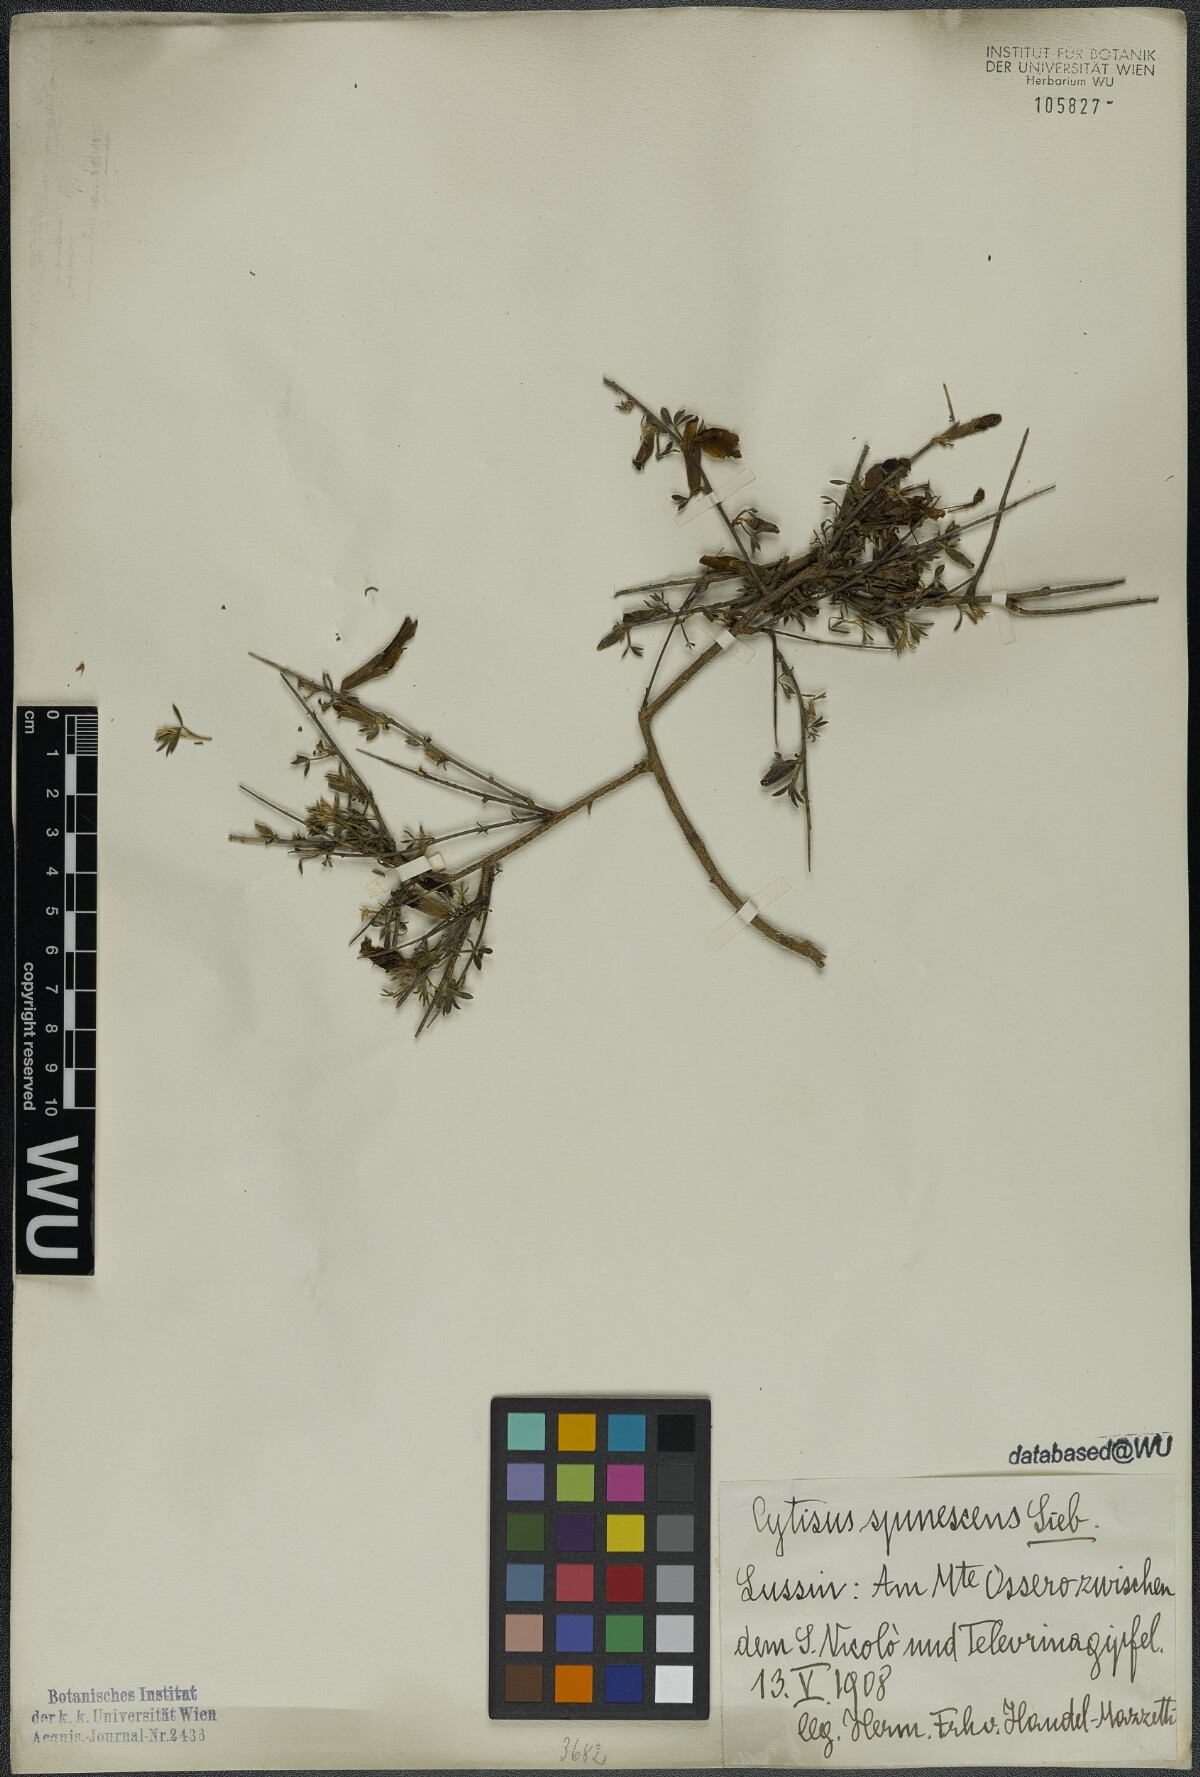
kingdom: Plantae
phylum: Tracheophyta
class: Magnoliopsida
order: Fabales
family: Fabaceae
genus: Chamaecytisus
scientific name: Chamaecytisus spinescens
